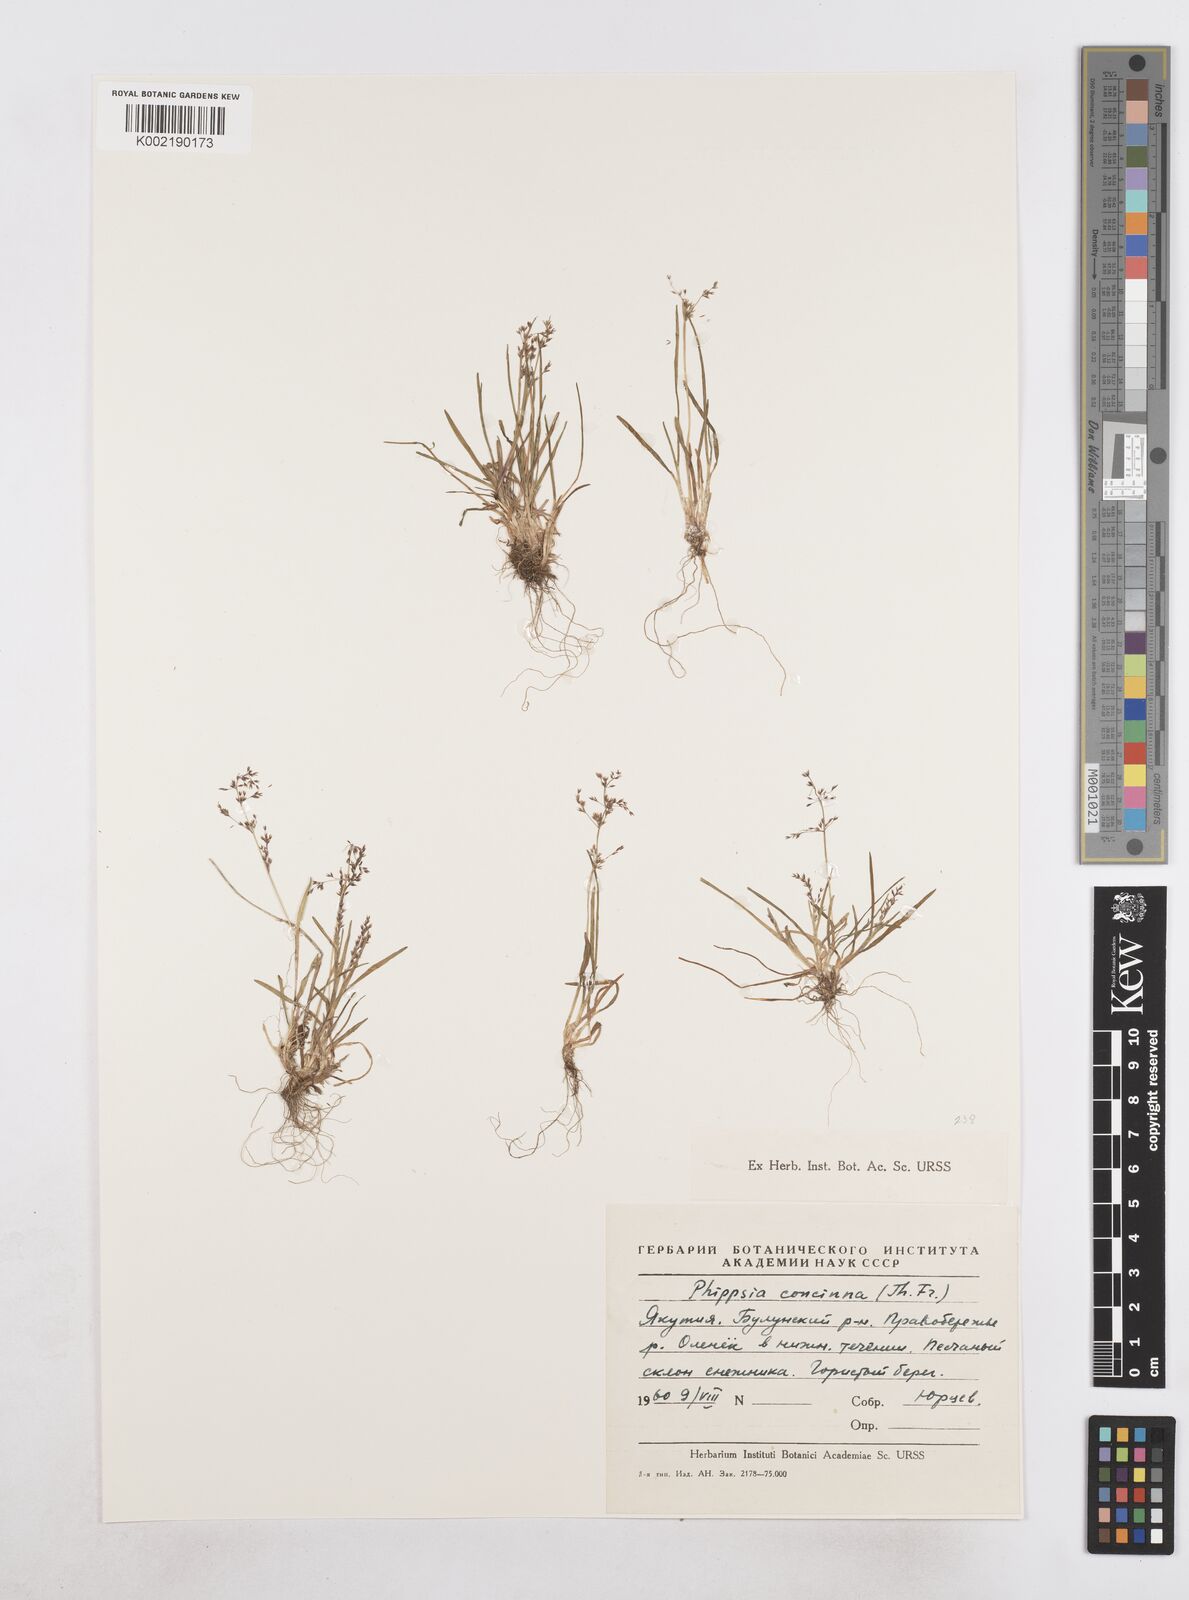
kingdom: Plantae
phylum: Tracheophyta
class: Liliopsida
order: Poales
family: Poaceae
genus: Phippsia
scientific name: Phippsia concinna
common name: Snowgrass
